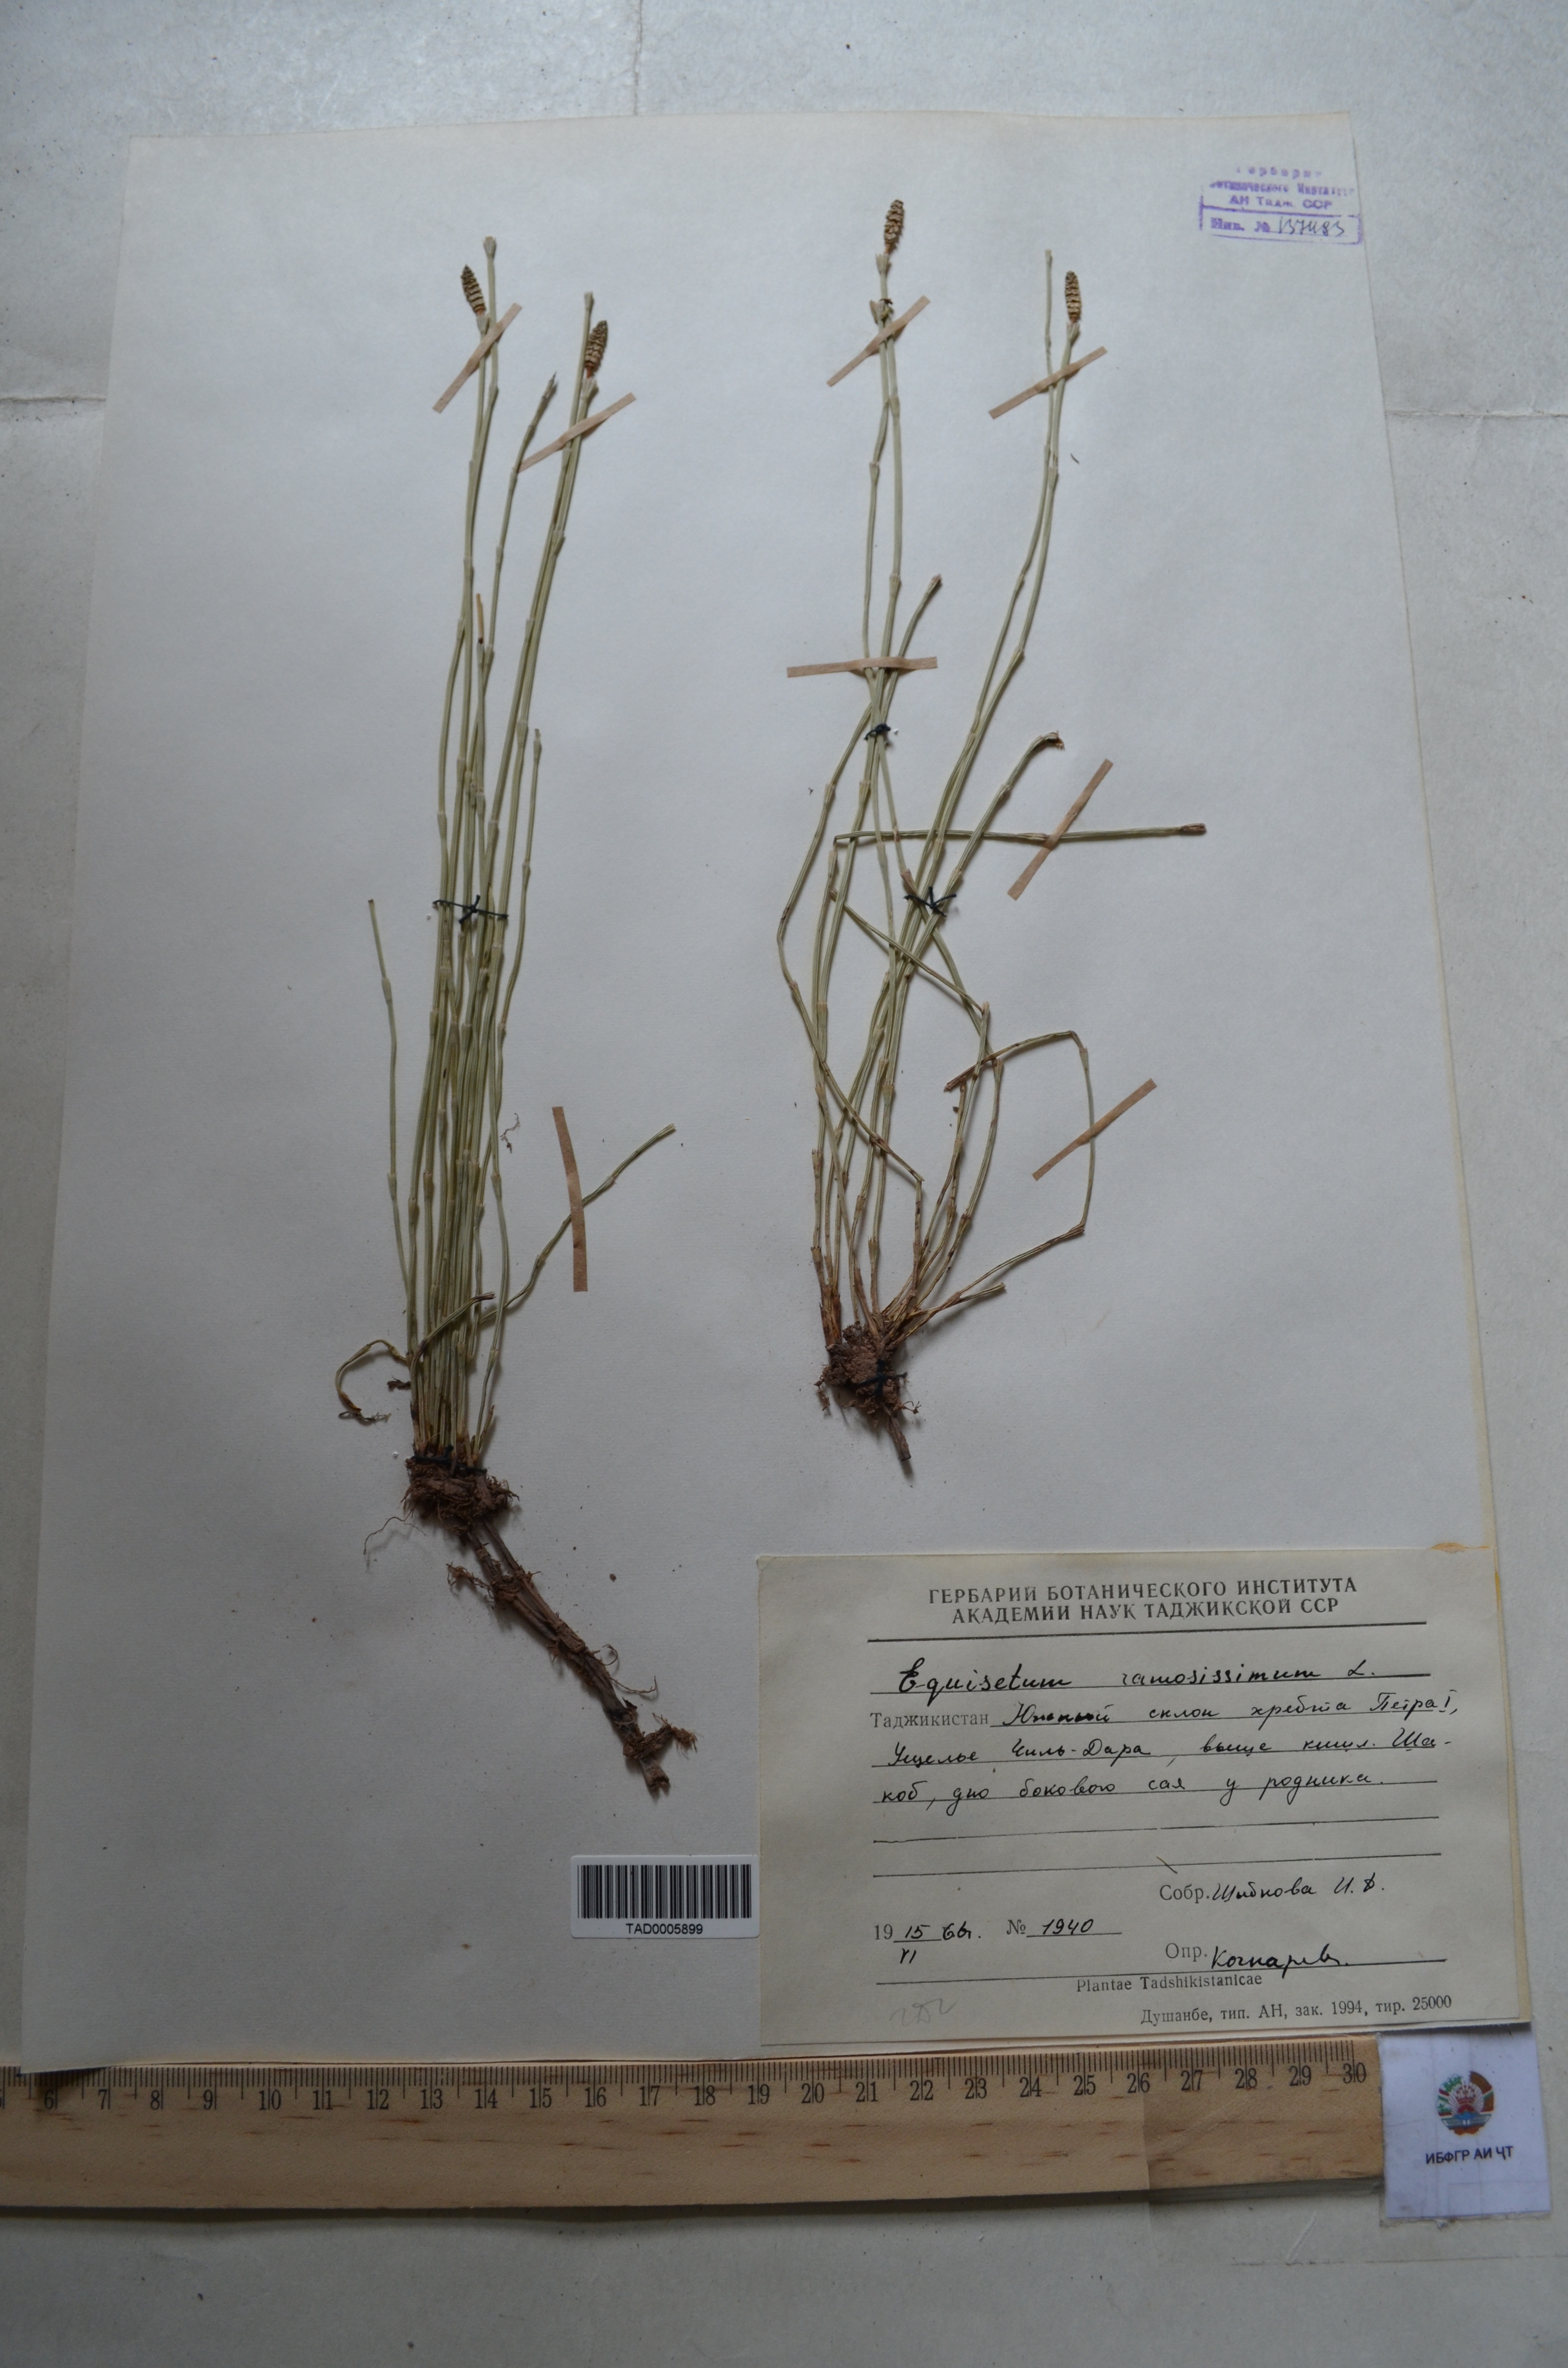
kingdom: Plantae
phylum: Tracheophyta
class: Polypodiopsida
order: Equisetales
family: Equisetaceae
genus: Equisetum
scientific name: Equisetum ramosissimum
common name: Branched horsetail
